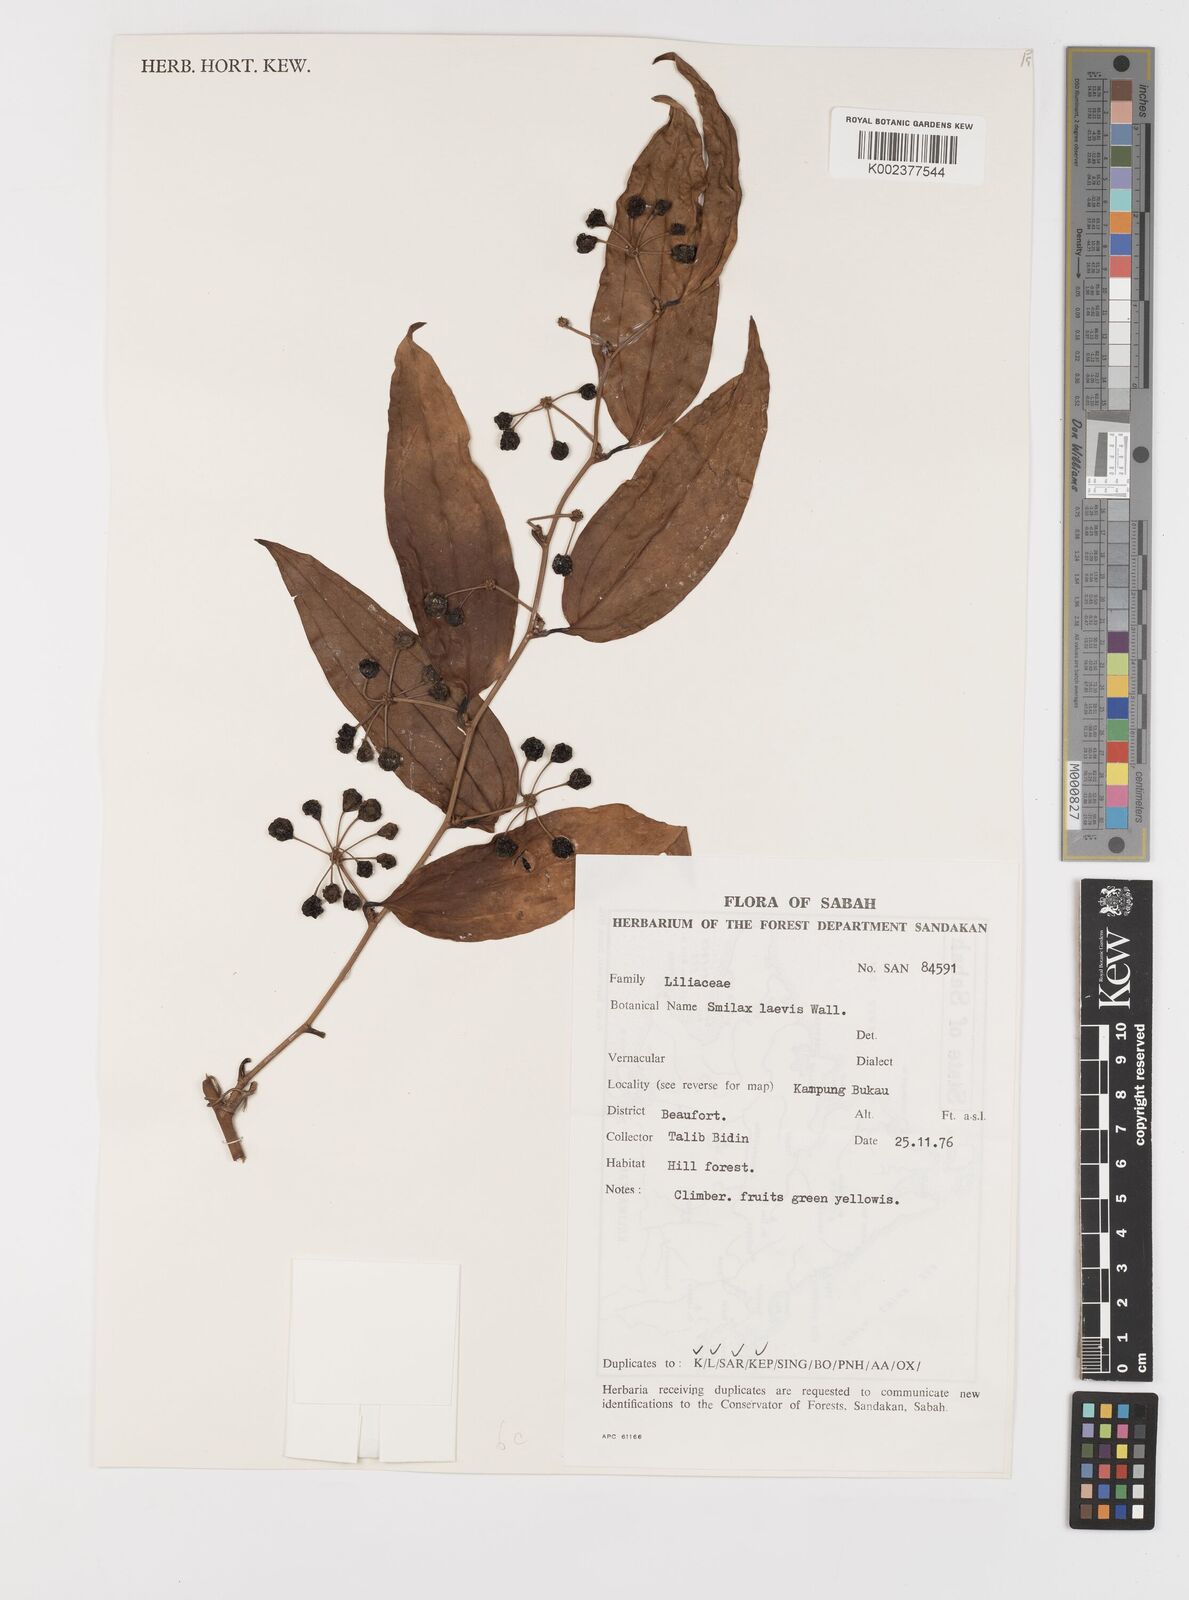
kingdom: Plantae
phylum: Tracheophyta
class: Liliopsida
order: Liliales
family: Smilacaceae
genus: Smilax
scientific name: Smilax laevis
